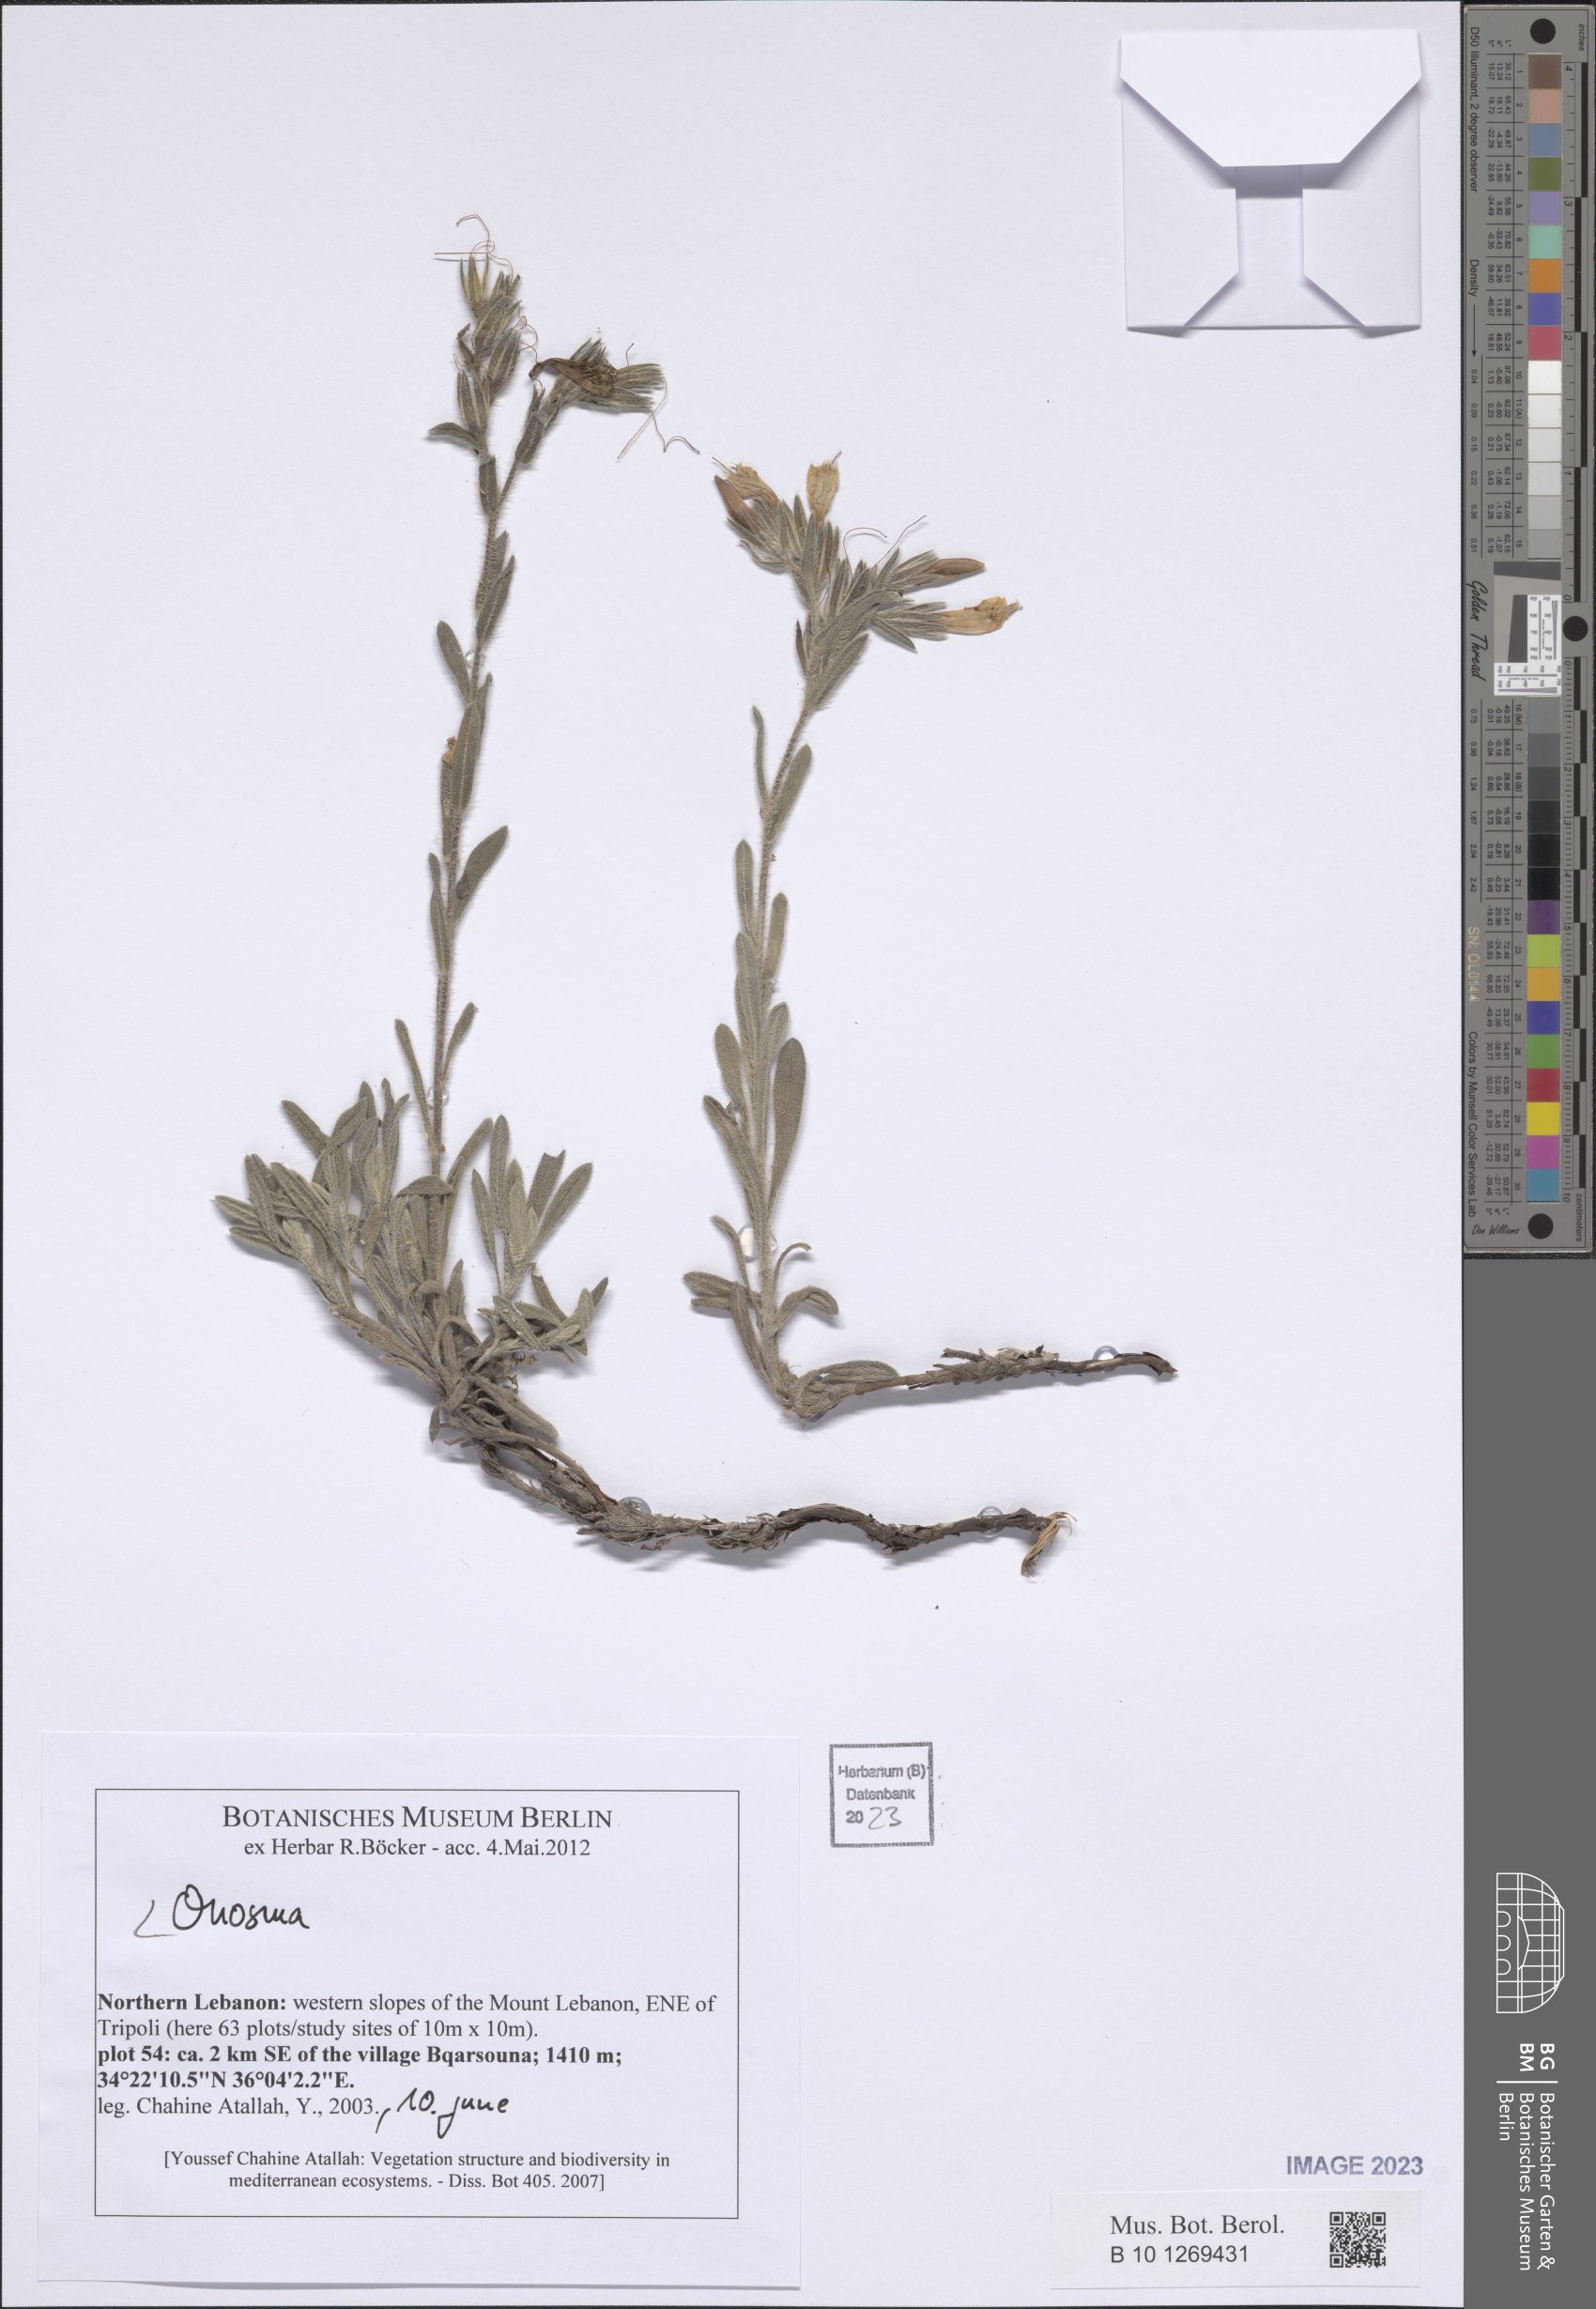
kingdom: Plantae
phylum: Tracheophyta
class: Magnoliopsida
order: Boraginales
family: Boraginaceae
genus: Onosma
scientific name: Onosma
